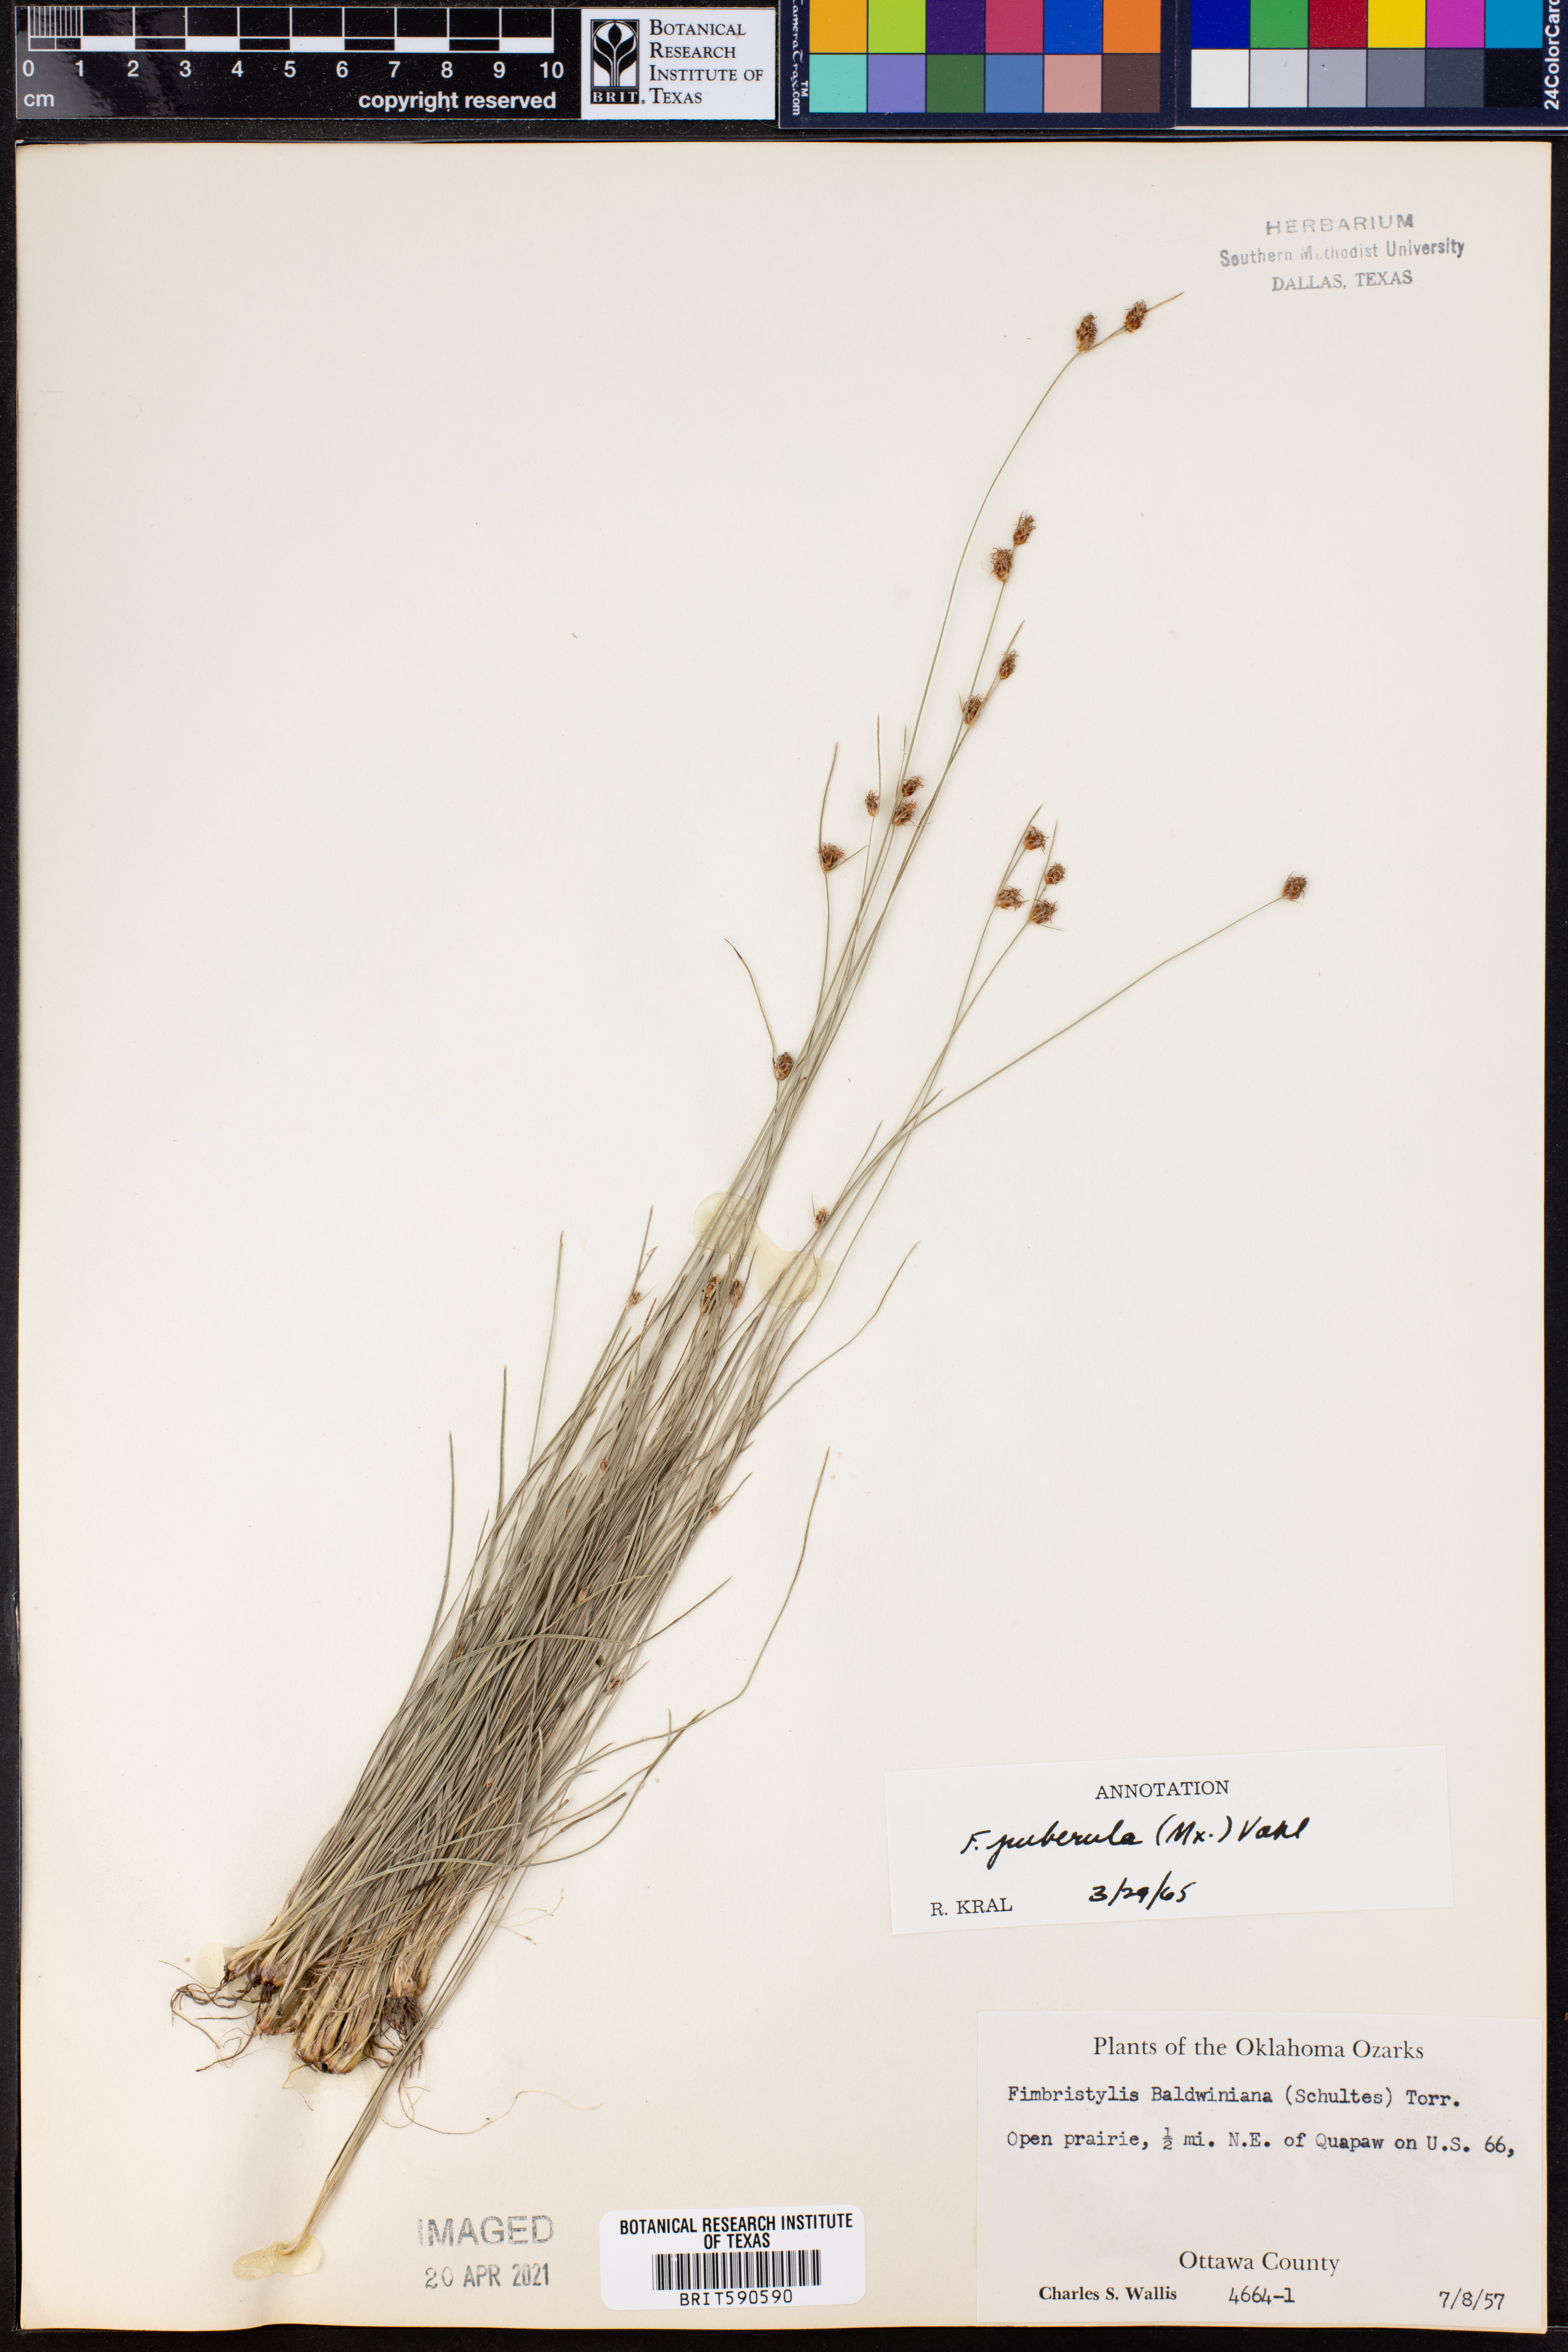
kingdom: Plantae
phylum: Tracheophyta
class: Liliopsida
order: Poales
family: Cyperaceae
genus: Fimbristylis
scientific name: Fimbristylis puberula
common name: Hairy fimbristylis
